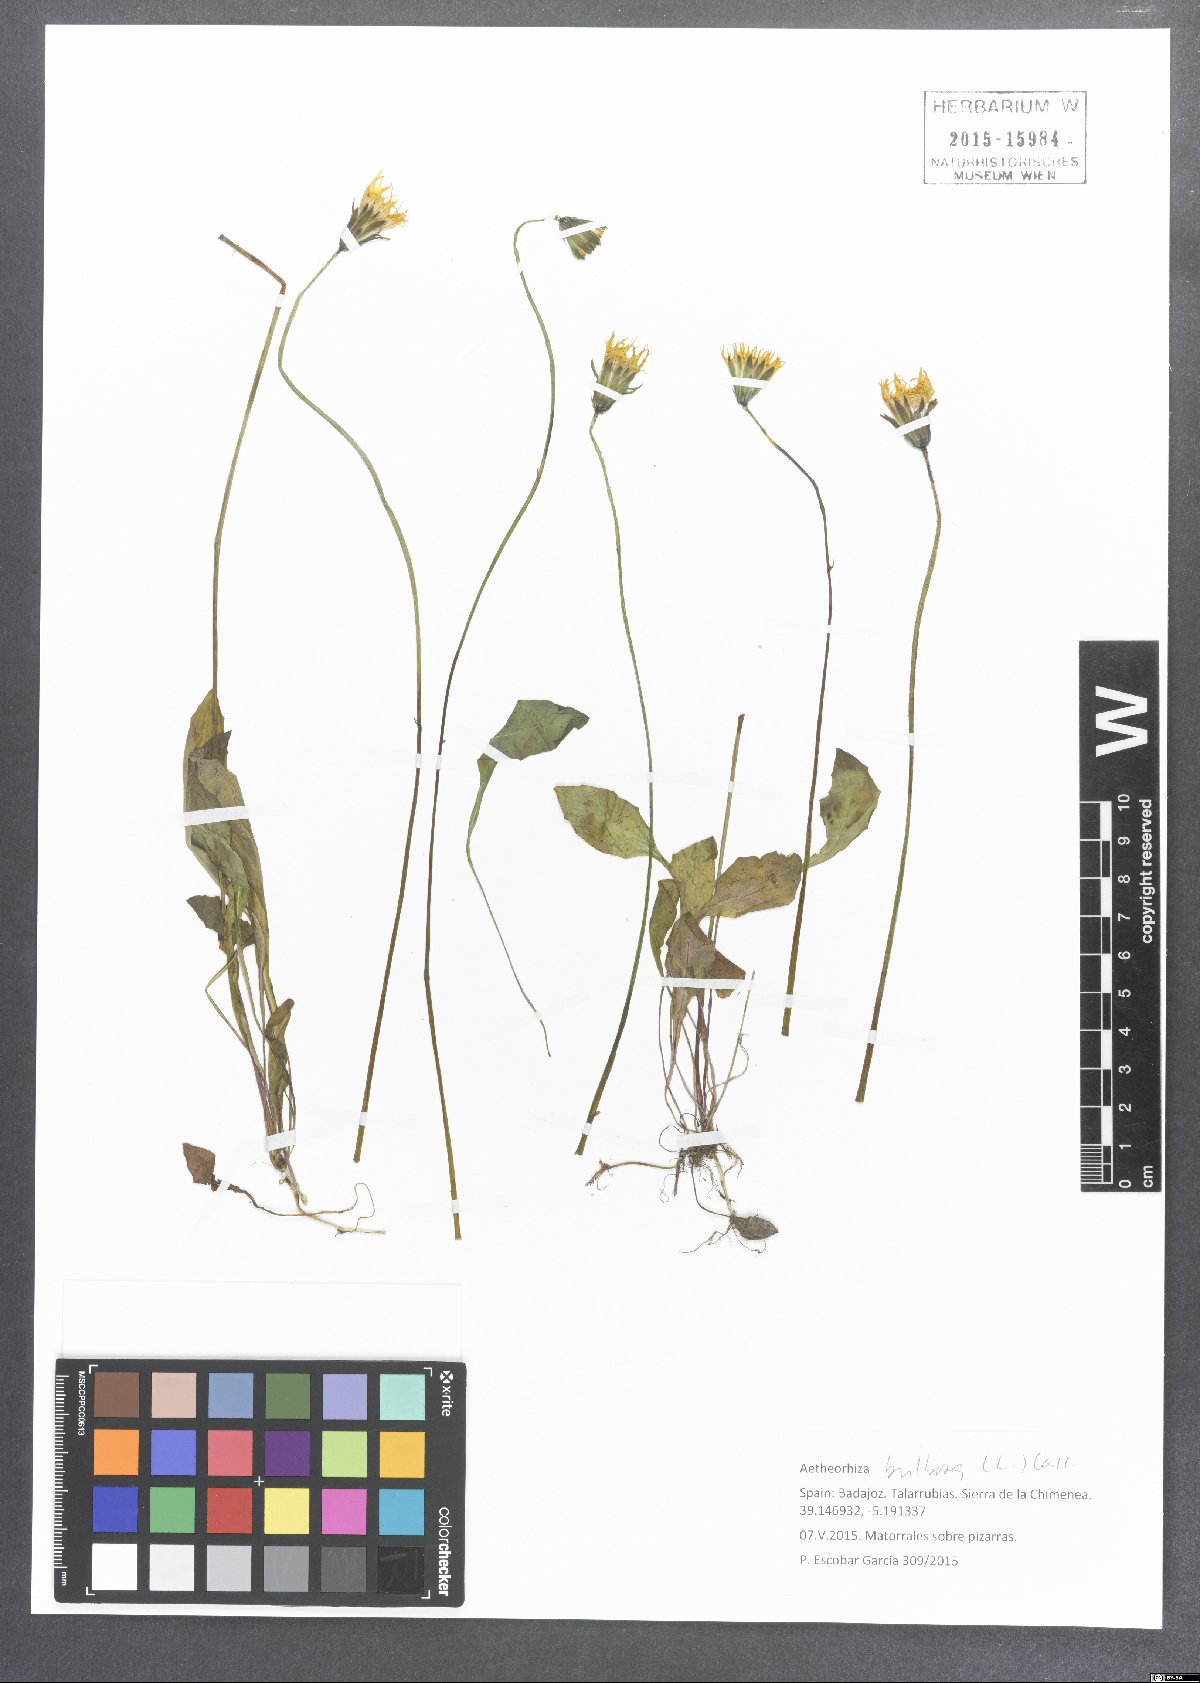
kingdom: Plantae
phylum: Tracheophyta
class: Magnoliopsida
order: Asterales
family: Asteraceae
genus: Aetheorhiza
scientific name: Aetheorhiza bulbosa
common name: Tuberous hawk's-beard
